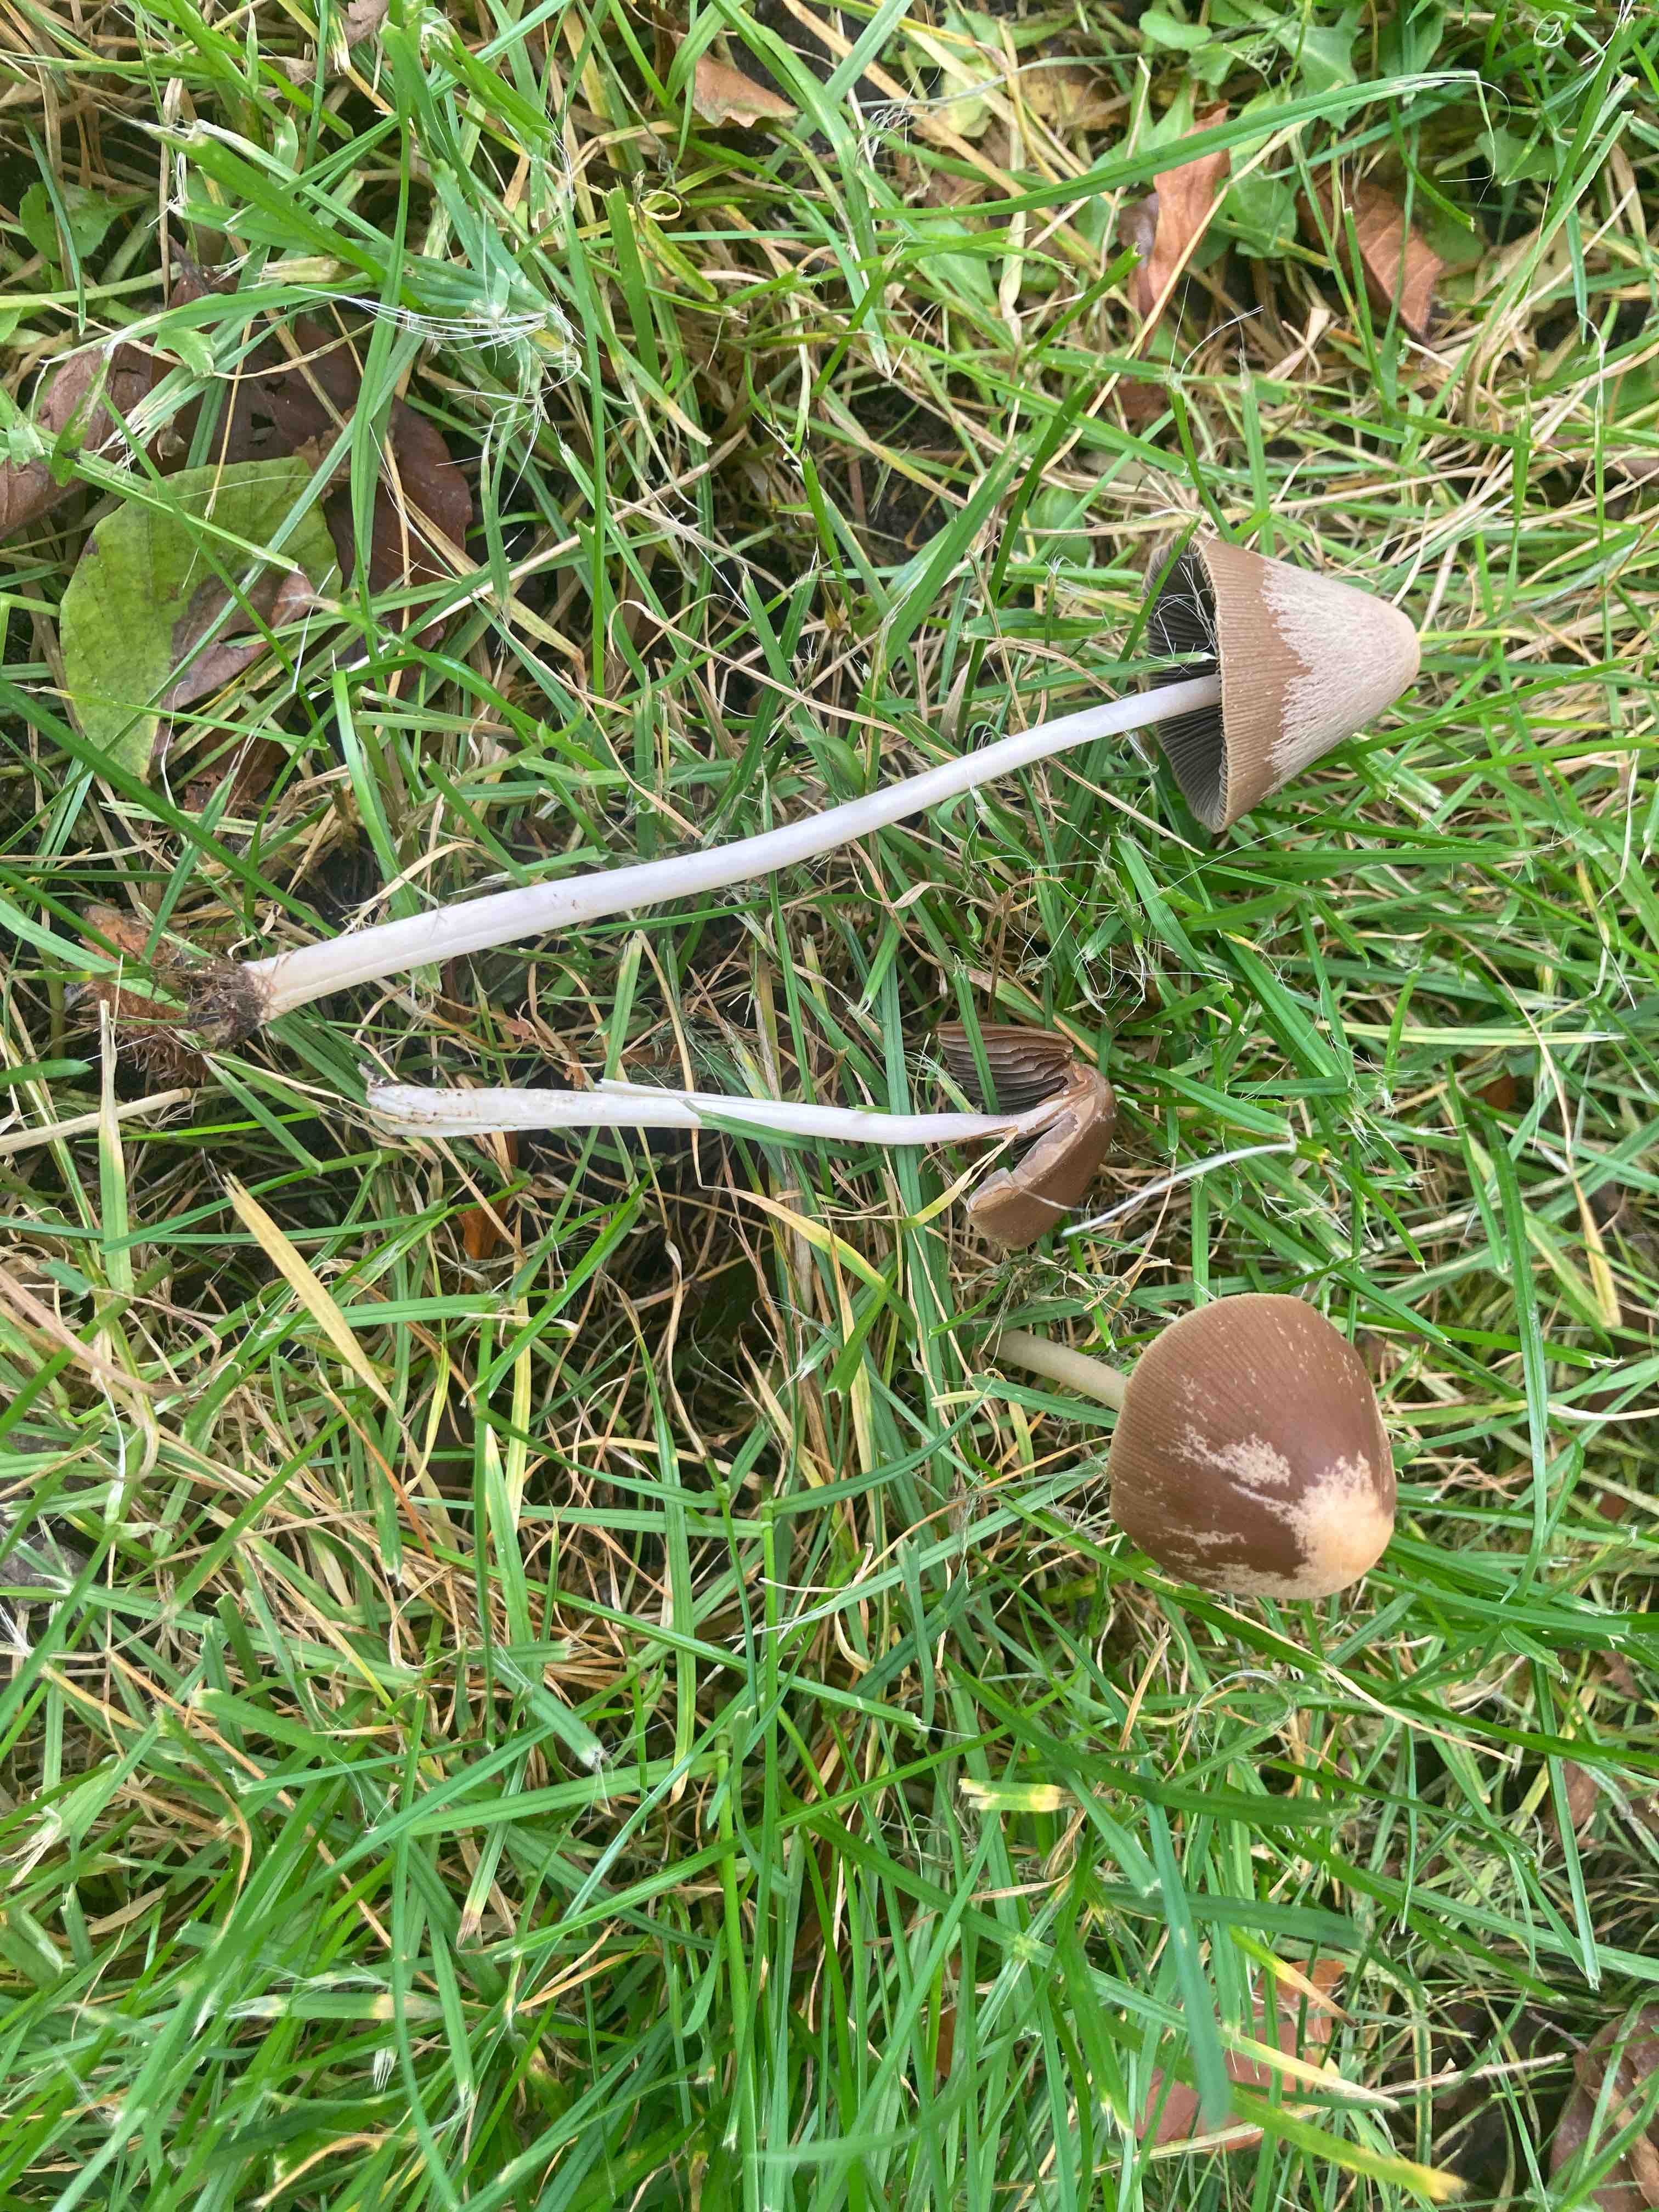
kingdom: Fungi
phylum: Basidiomycota
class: Agaricomycetes
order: Agaricales
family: Psathyrellaceae
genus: Parasola
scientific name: Parasola conopilea
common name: kegle-hjulhat
